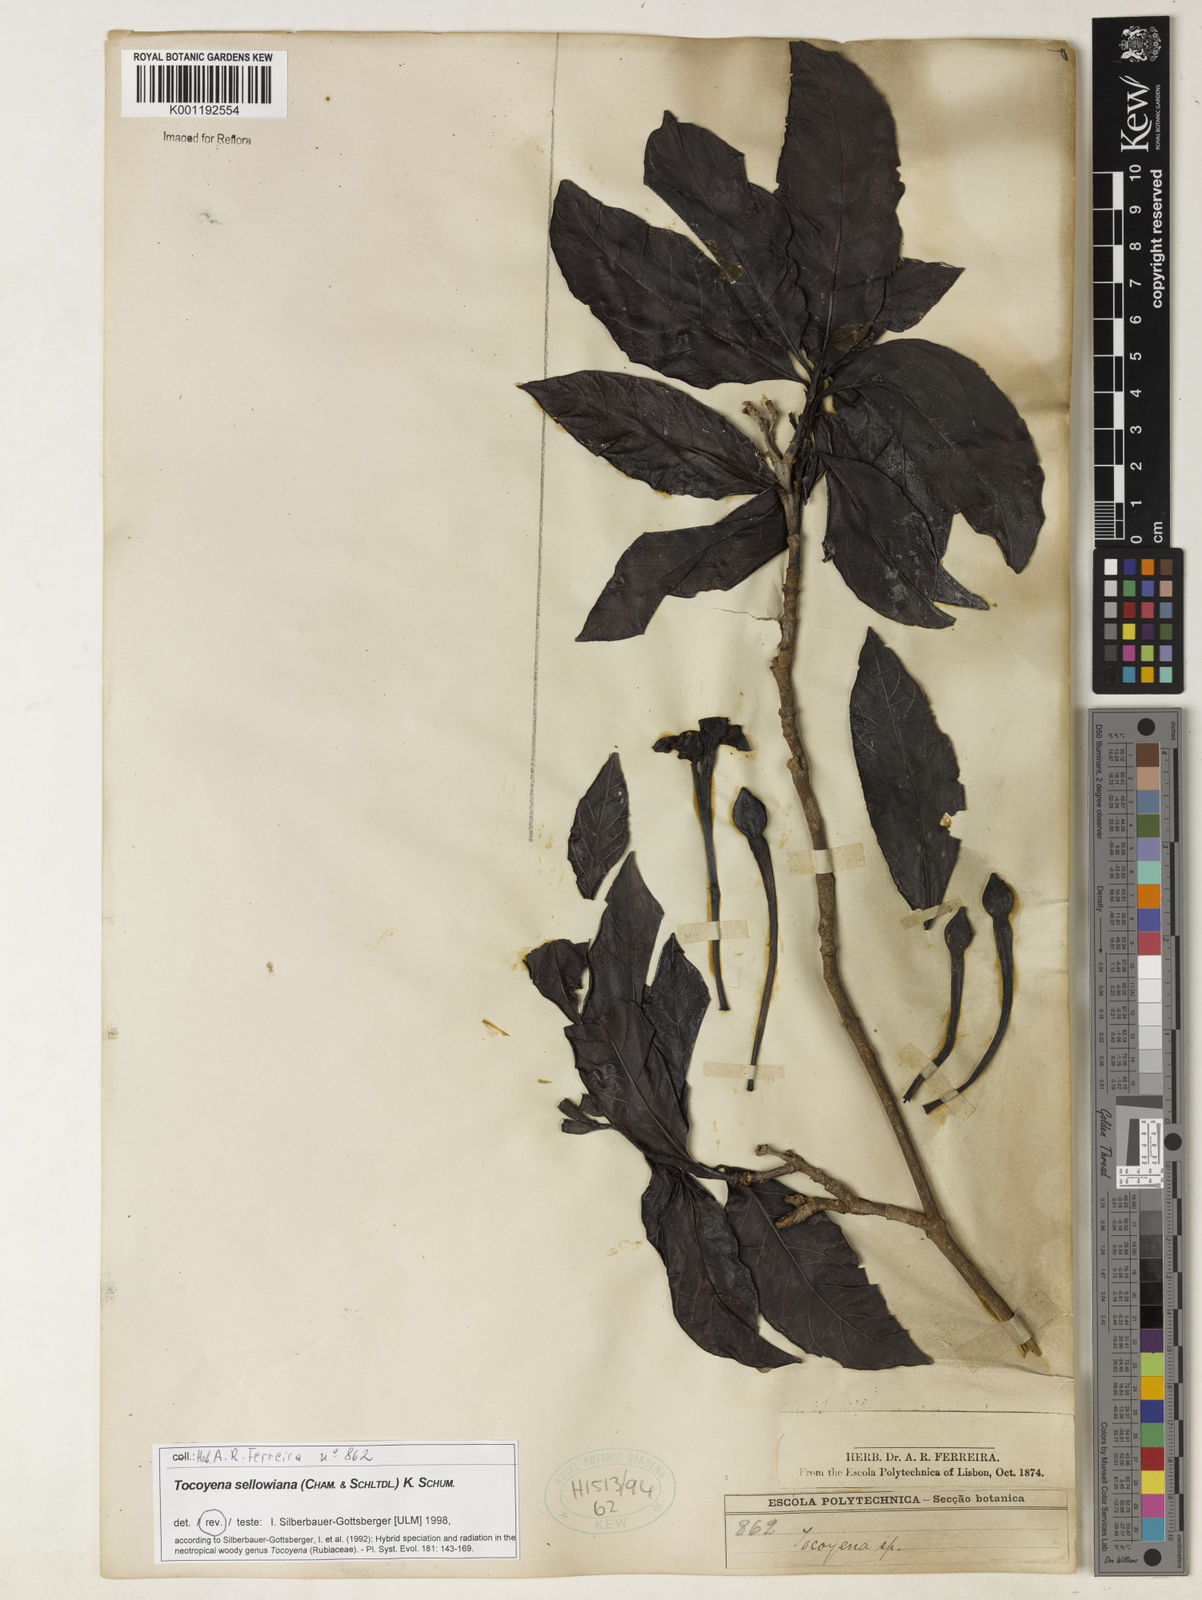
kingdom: Plantae
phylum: Tracheophyta
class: Magnoliopsida
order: Gentianales
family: Rubiaceae
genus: Tocoyena
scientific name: Tocoyena sellowiana
